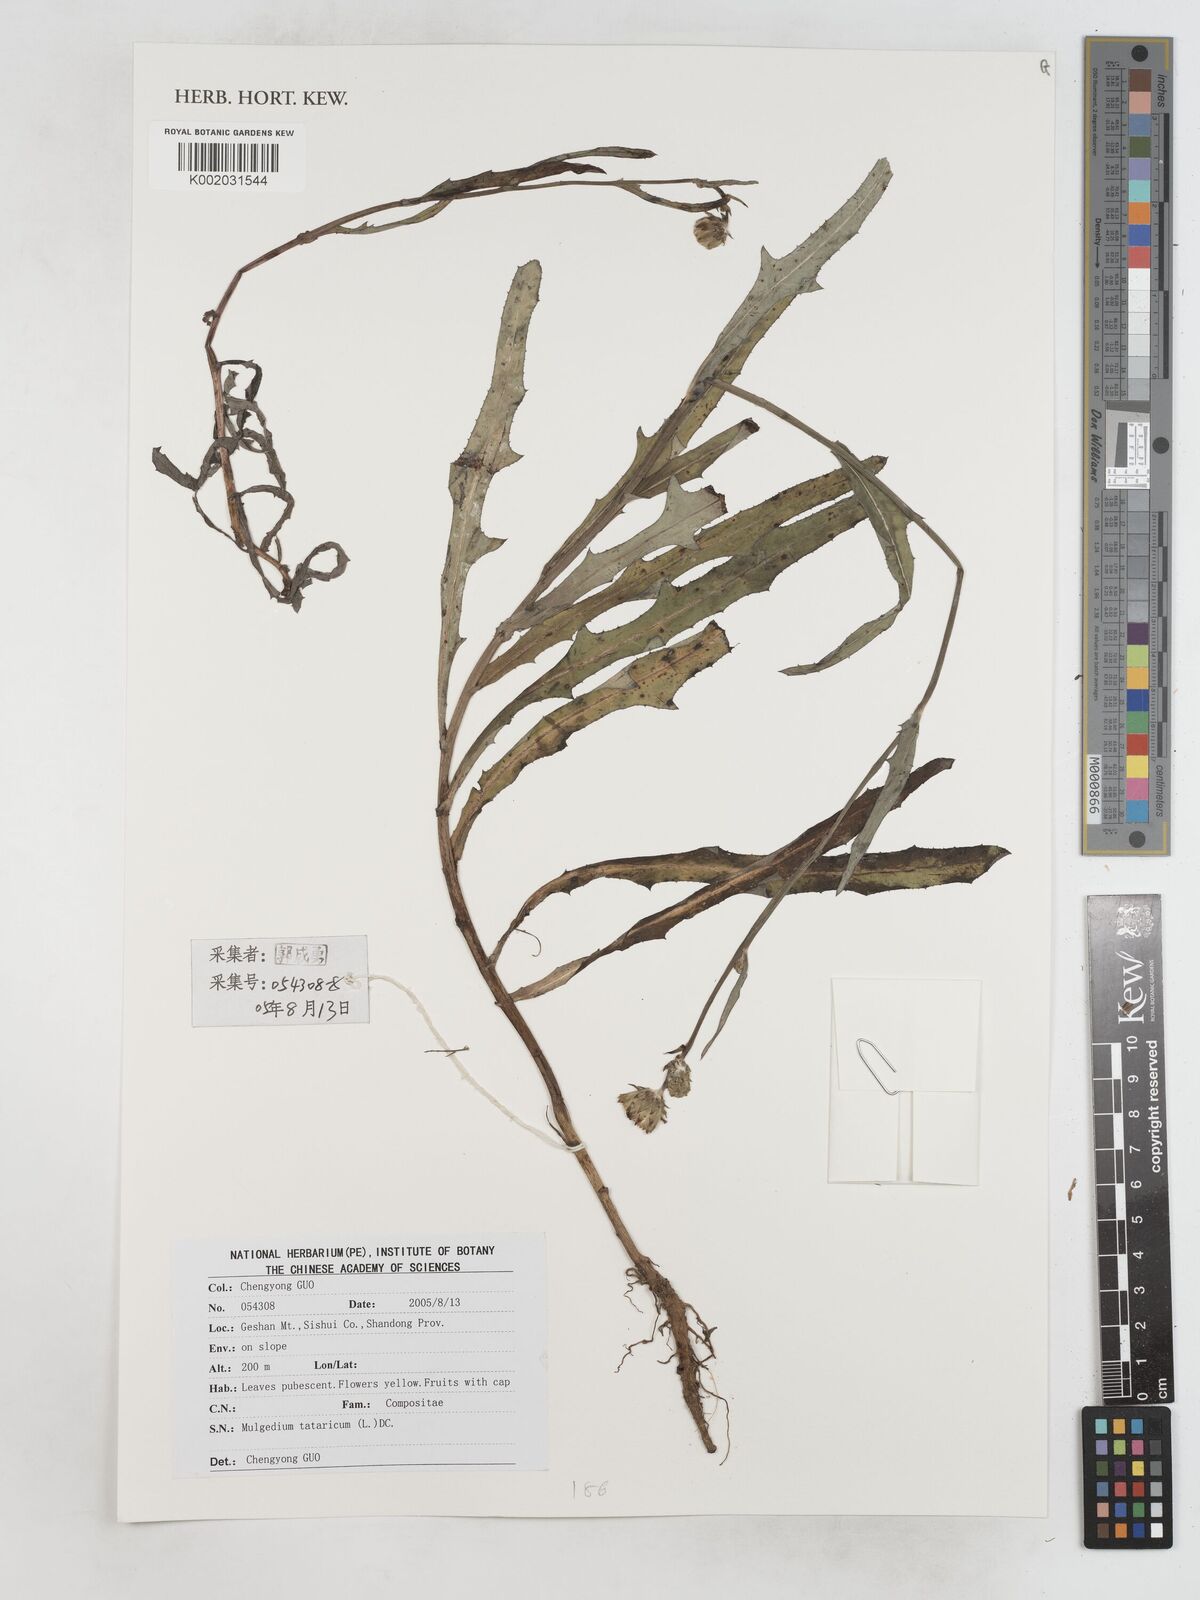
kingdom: Plantae
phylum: Tracheophyta
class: Magnoliopsida
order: Asterales
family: Asteraceae
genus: Lactuca
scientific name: Lactuca
